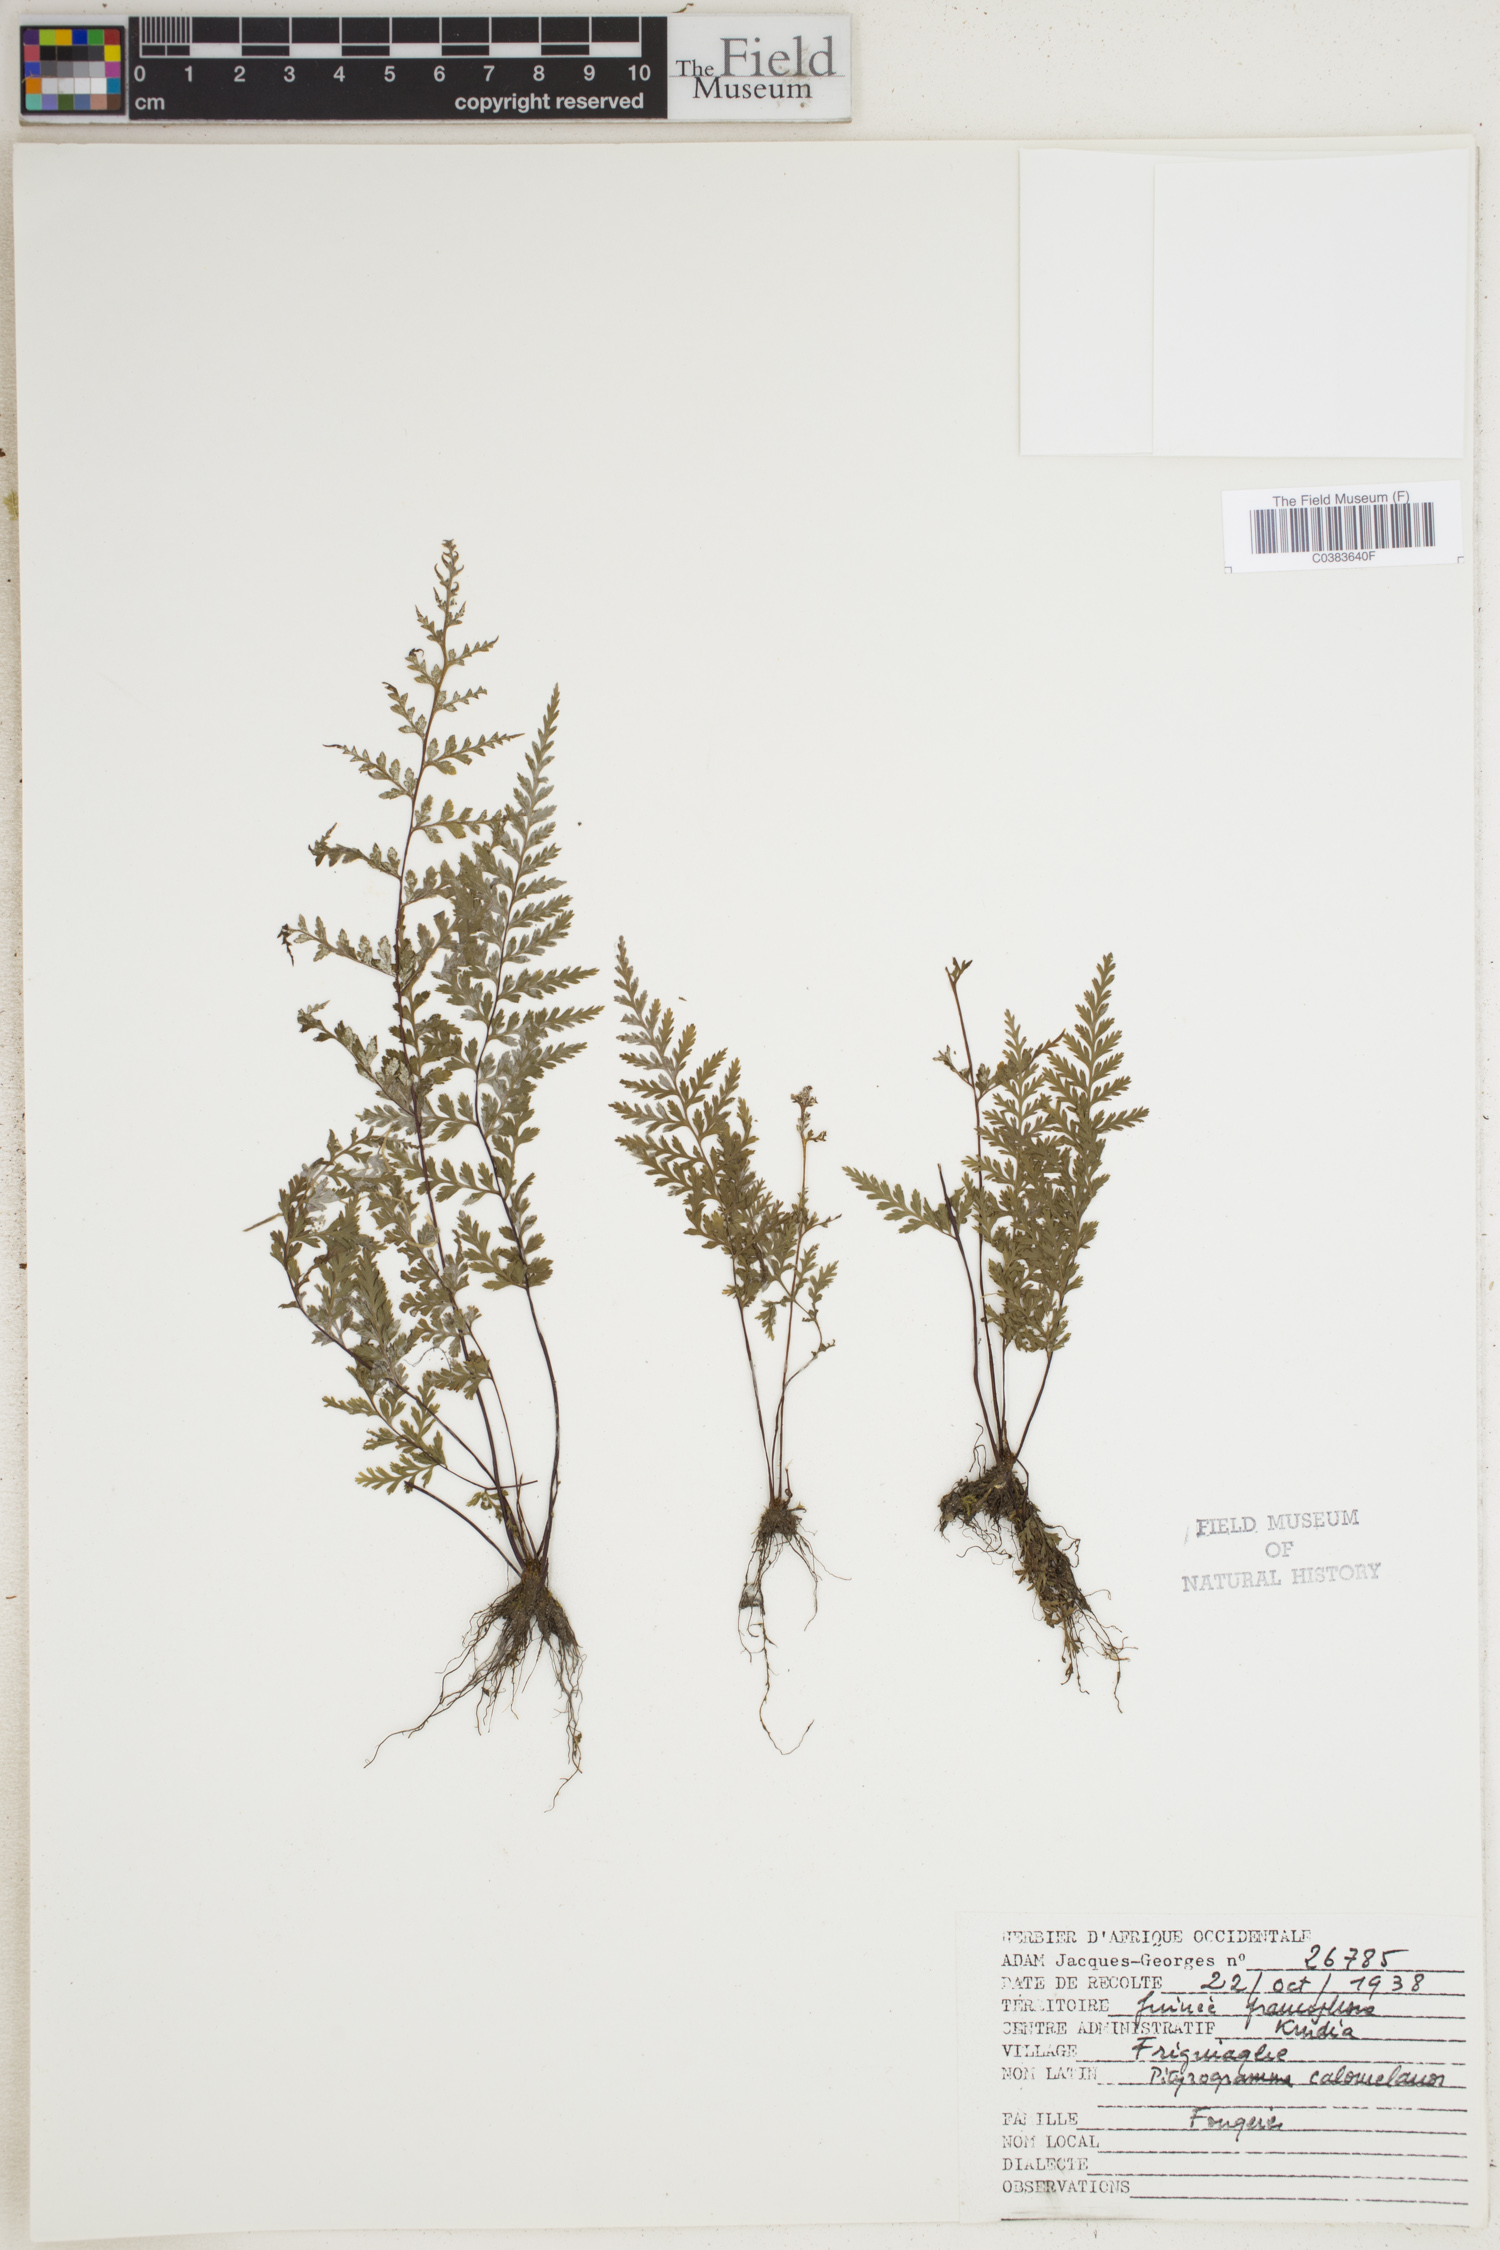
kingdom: Plantae
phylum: Tracheophyta
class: Polypodiopsida
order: Polypodiales
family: Pteridaceae
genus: Pityrogramma
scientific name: Pityrogramma calomelanos
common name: Dixie silverback fern
